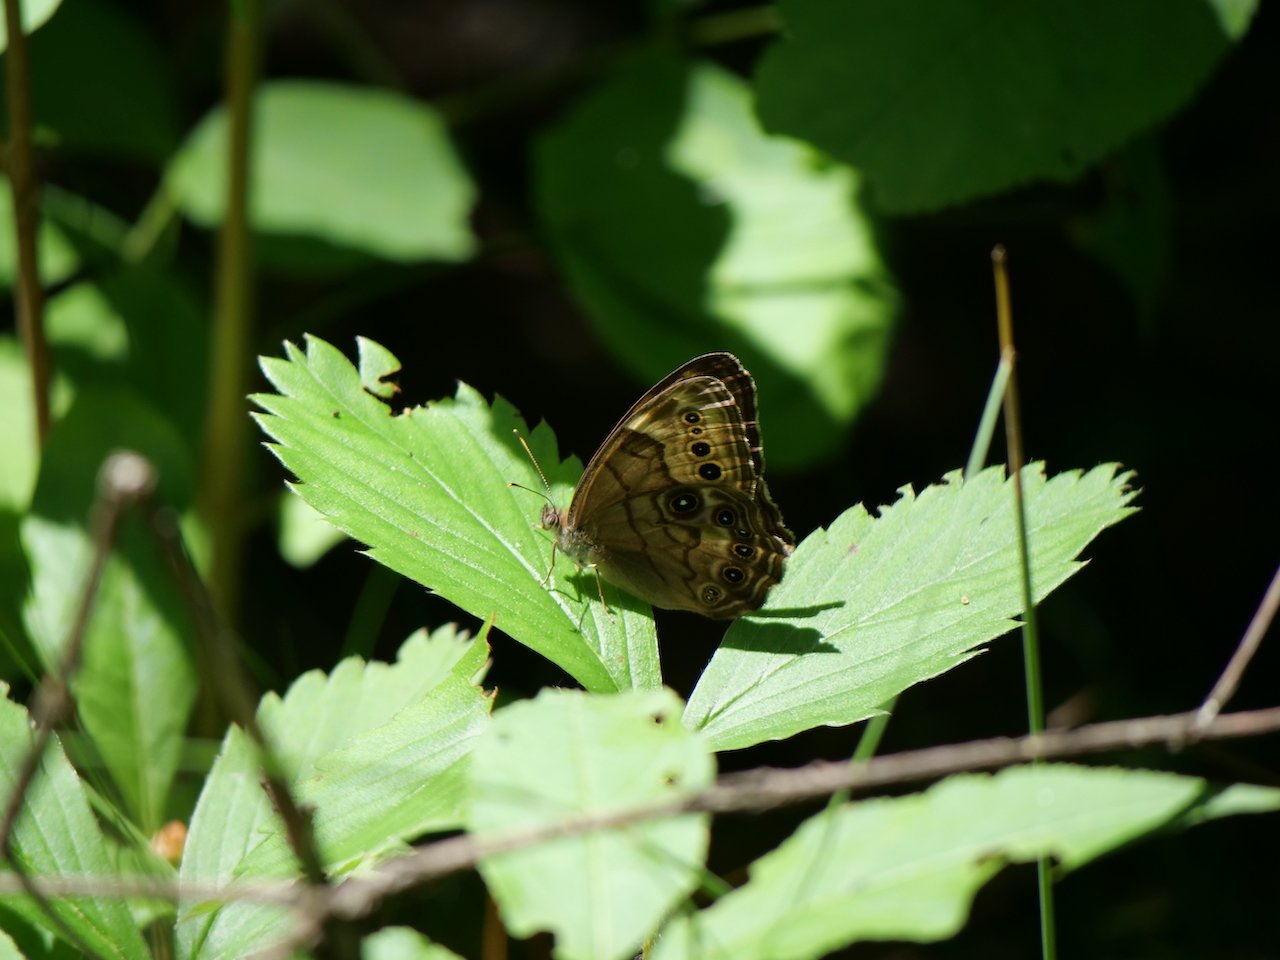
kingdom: Animalia
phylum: Arthropoda
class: Insecta
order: Lepidoptera
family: Nymphalidae
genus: Lethe
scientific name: Lethe anthedon
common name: Northern Pearly-Eye
